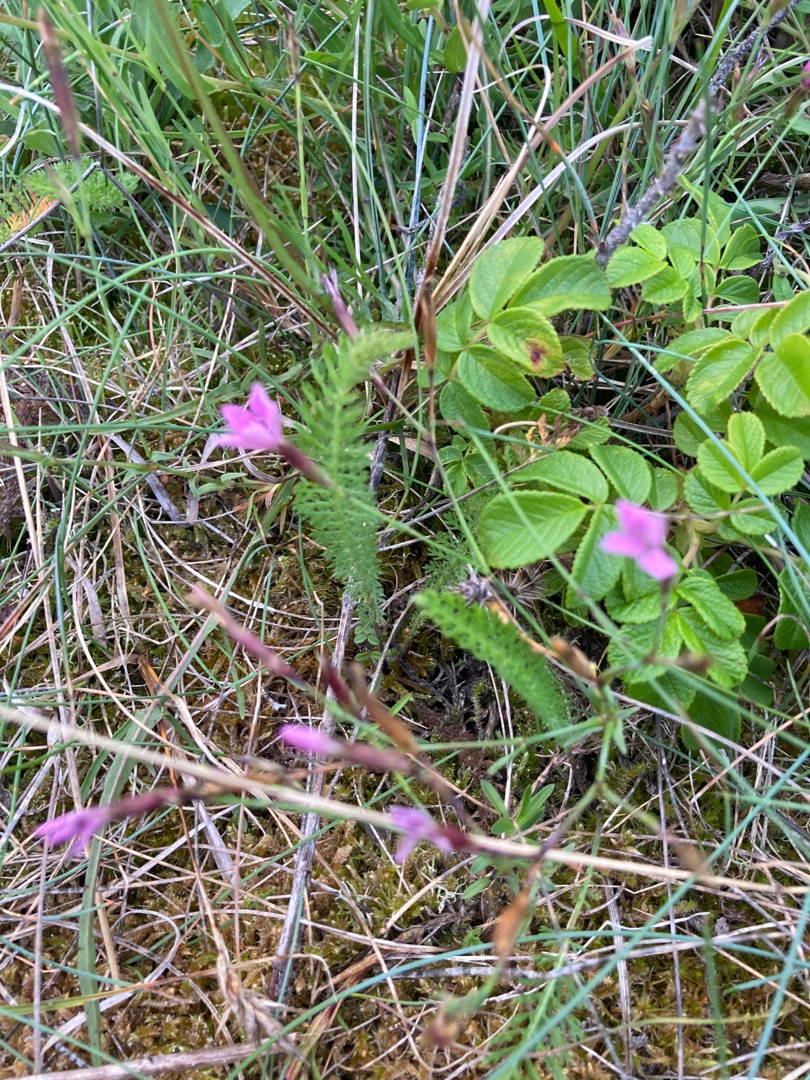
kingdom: Plantae
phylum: Tracheophyta
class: Magnoliopsida
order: Caryophyllales
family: Caryophyllaceae
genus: Dianthus
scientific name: Dianthus deltoides
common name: Bakke-nellike
